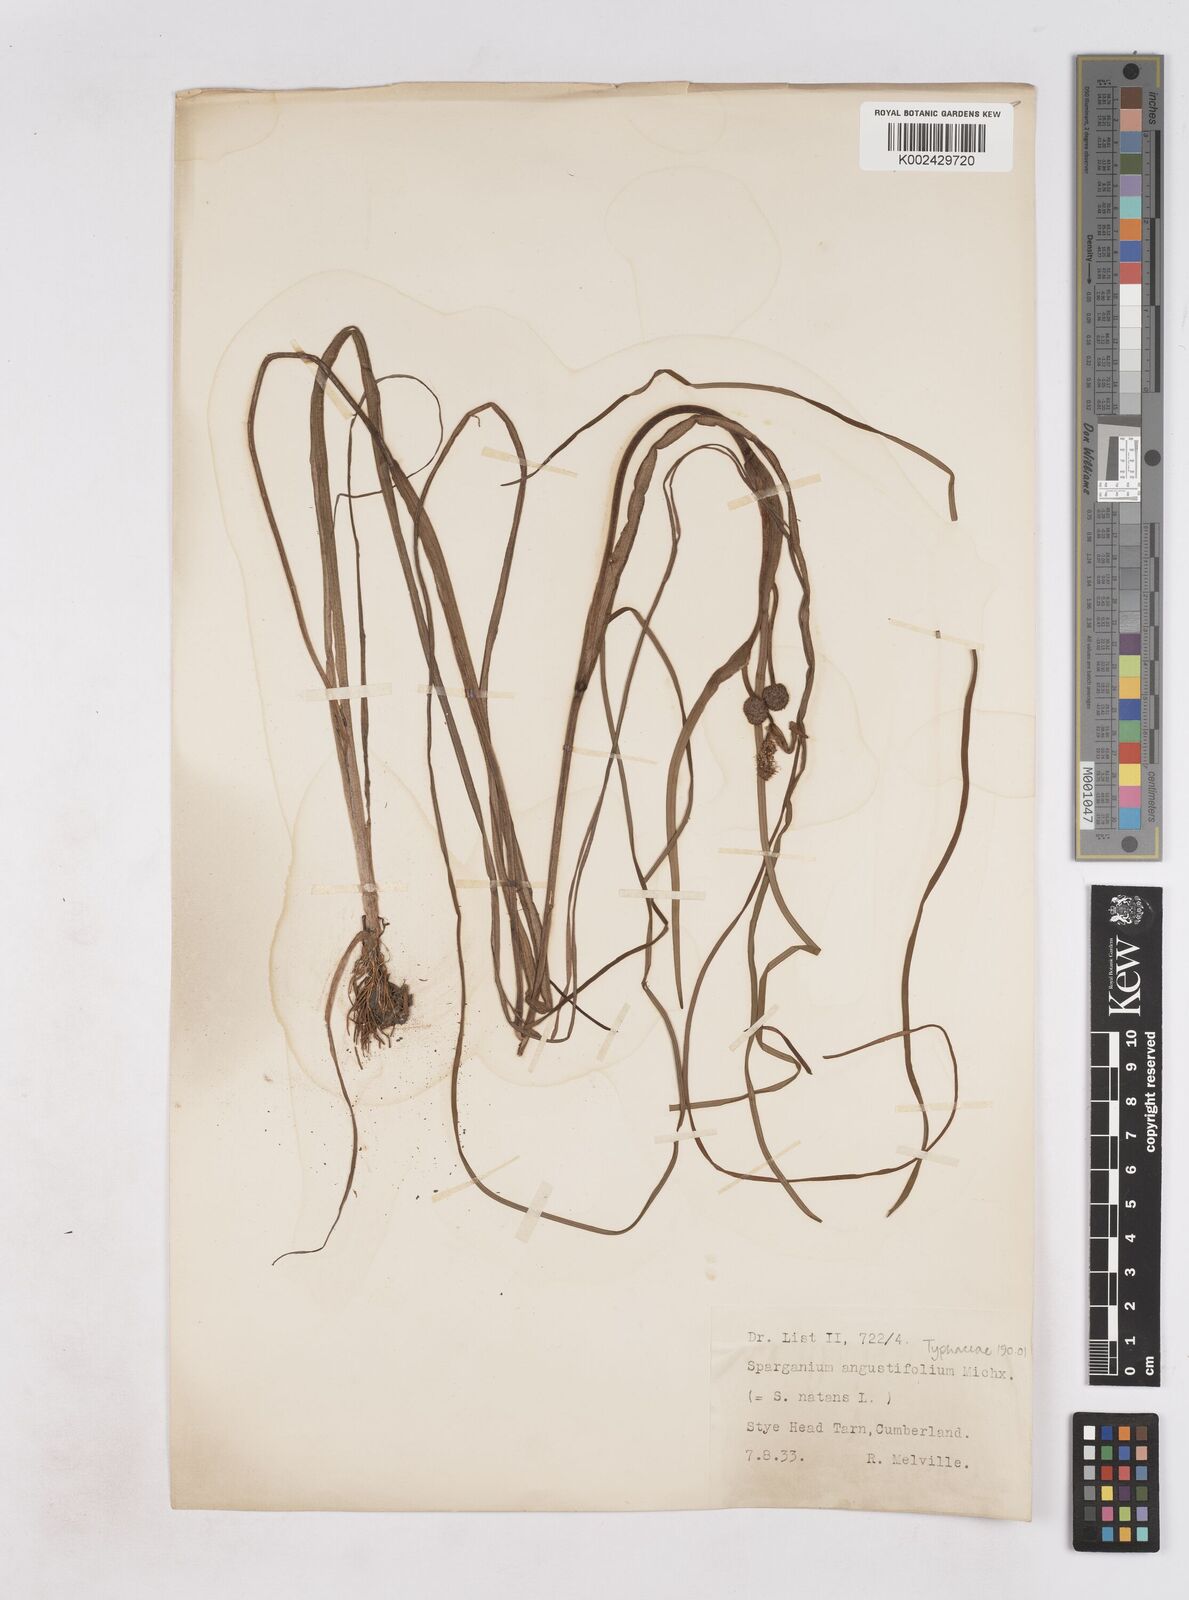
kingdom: Plantae
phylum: Tracheophyta
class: Liliopsida
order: Poales
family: Typhaceae
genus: Sparganium
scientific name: Sparganium angustifolium
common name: Floating bur-reed
